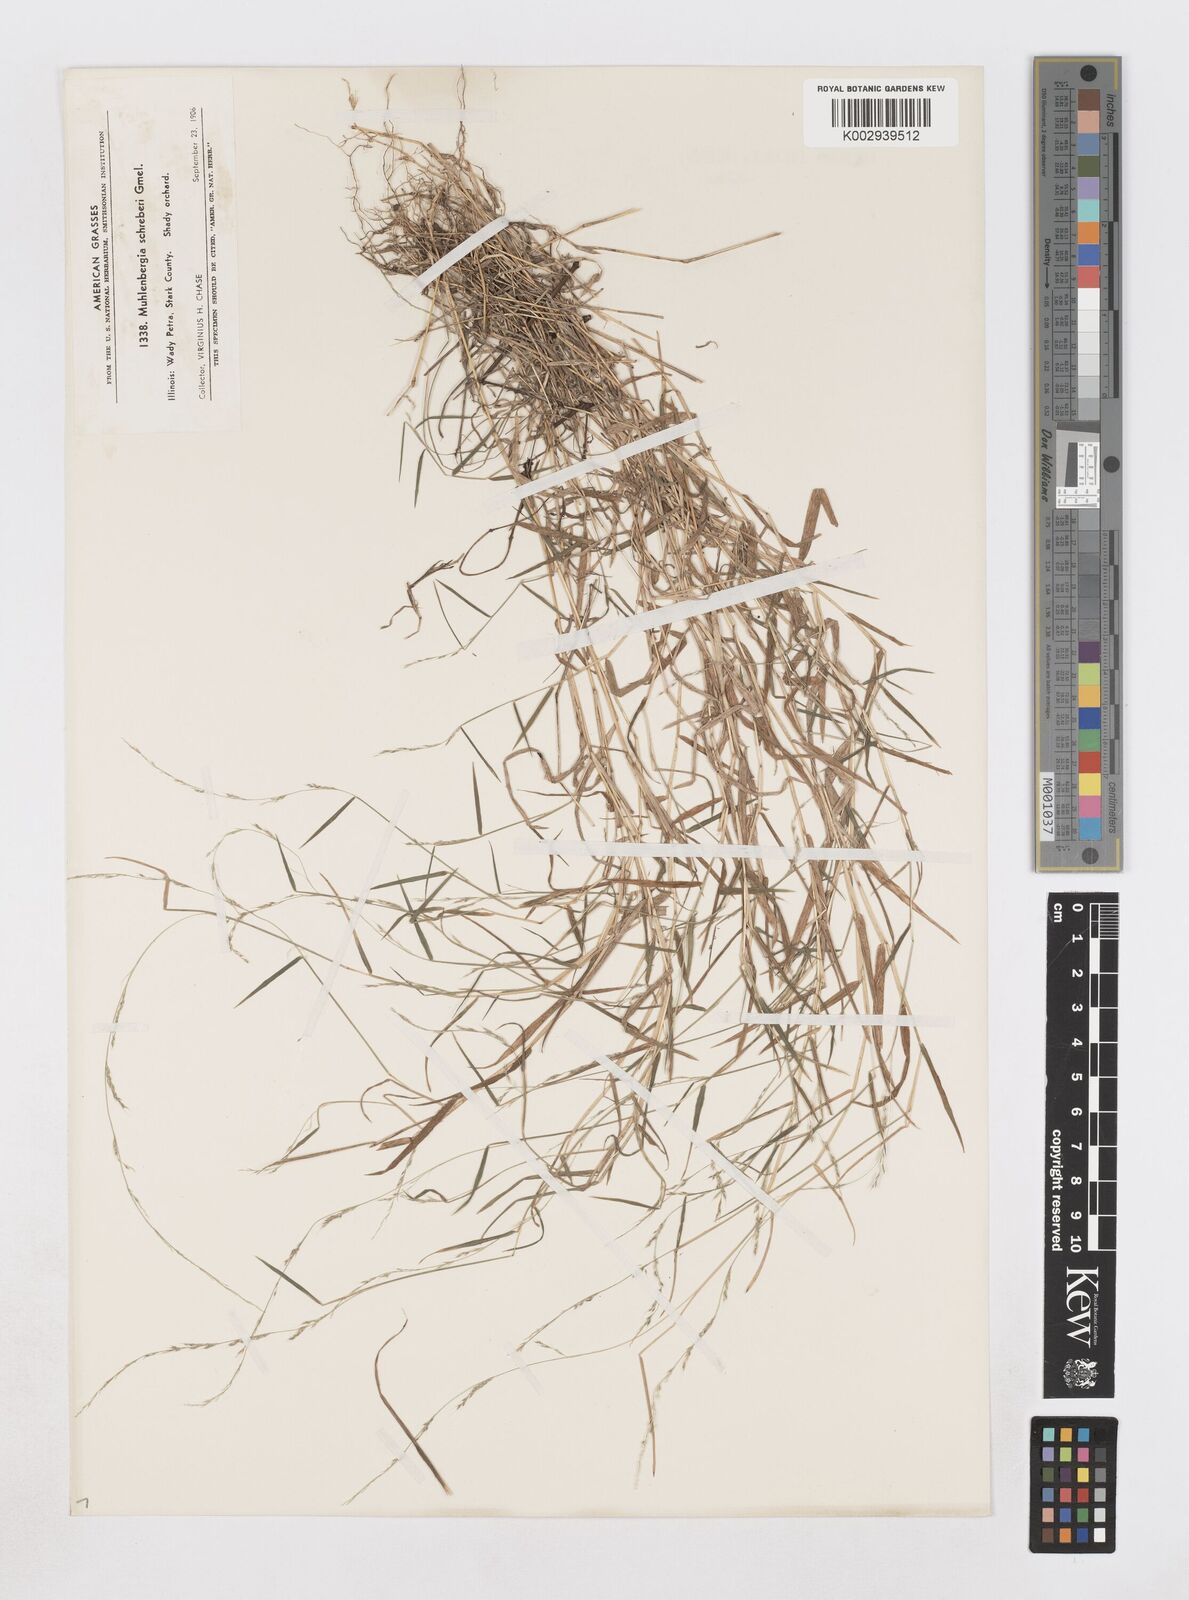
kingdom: Plantae
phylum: Tracheophyta
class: Liliopsida
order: Poales
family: Poaceae
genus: Muhlenbergia
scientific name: Muhlenbergia schreberi
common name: Nimblewill
